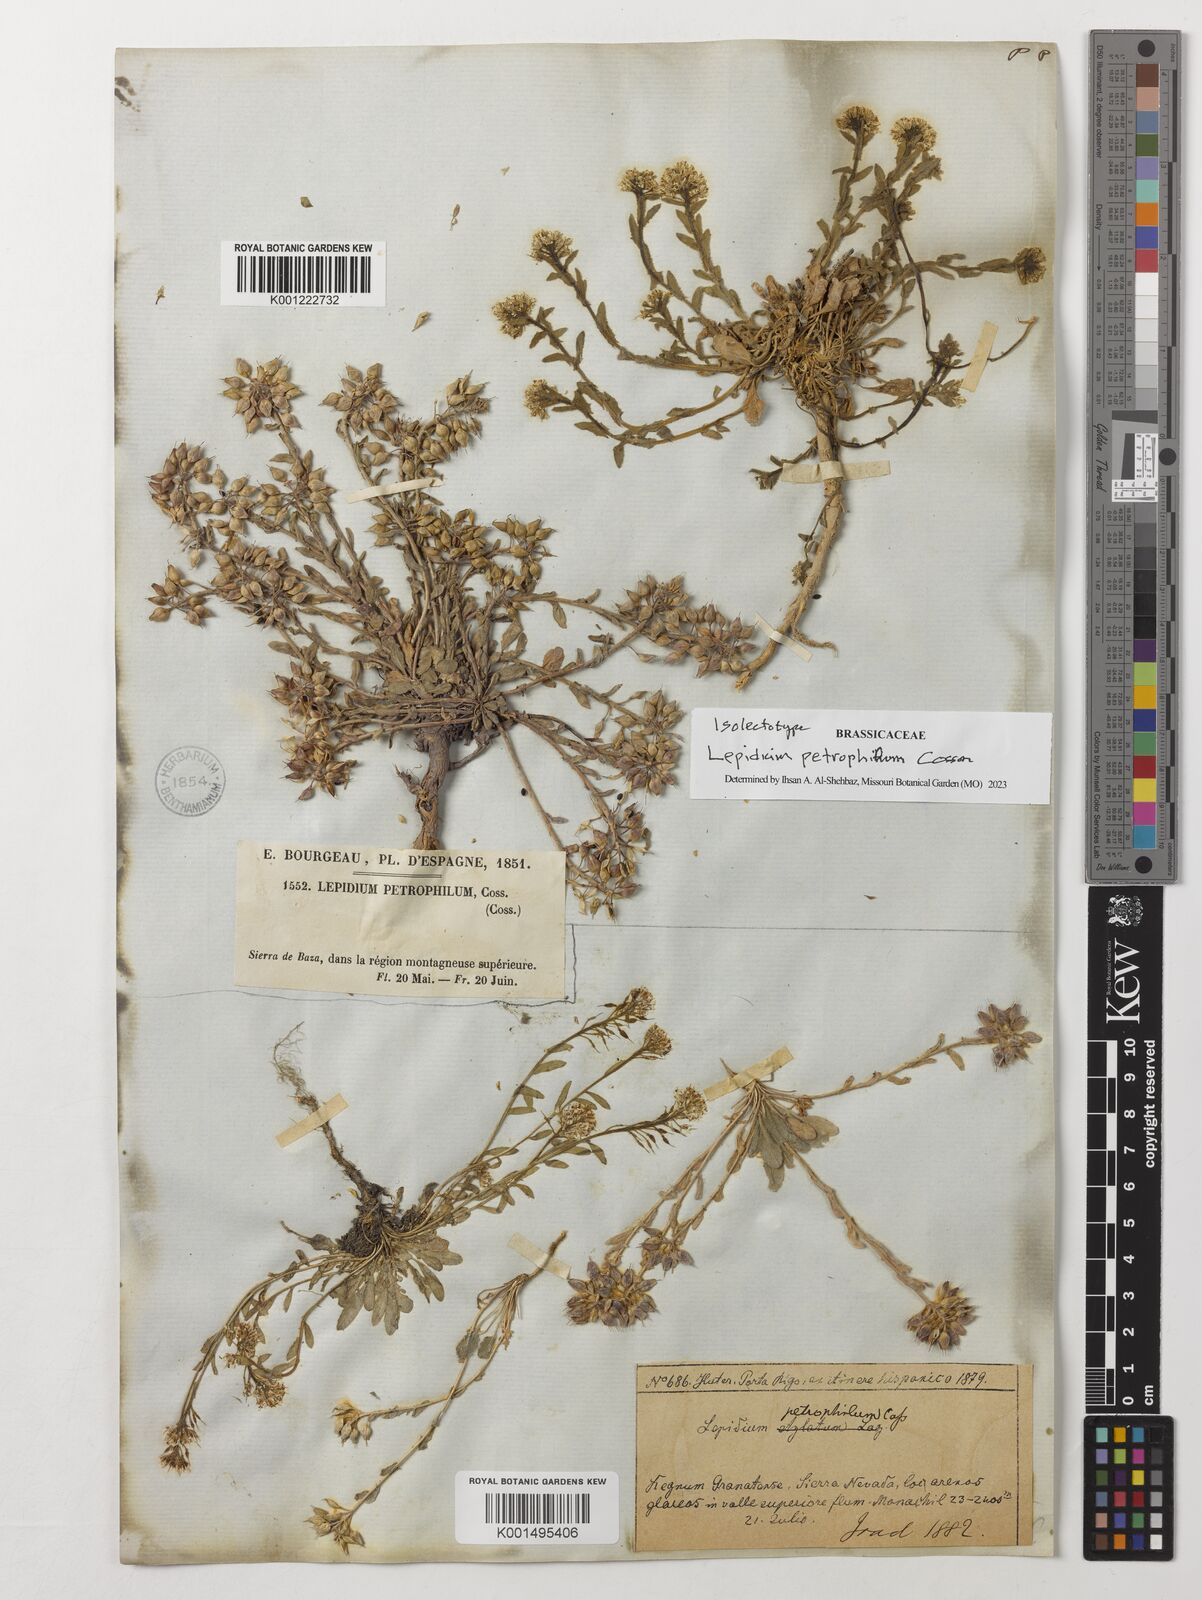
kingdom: Plantae
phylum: Tracheophyta
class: Magnoliopsida
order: Brassicales
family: Brassicaceae
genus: Lepidium
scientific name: Lepidium hirtum
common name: Mediterranean pepperweed
